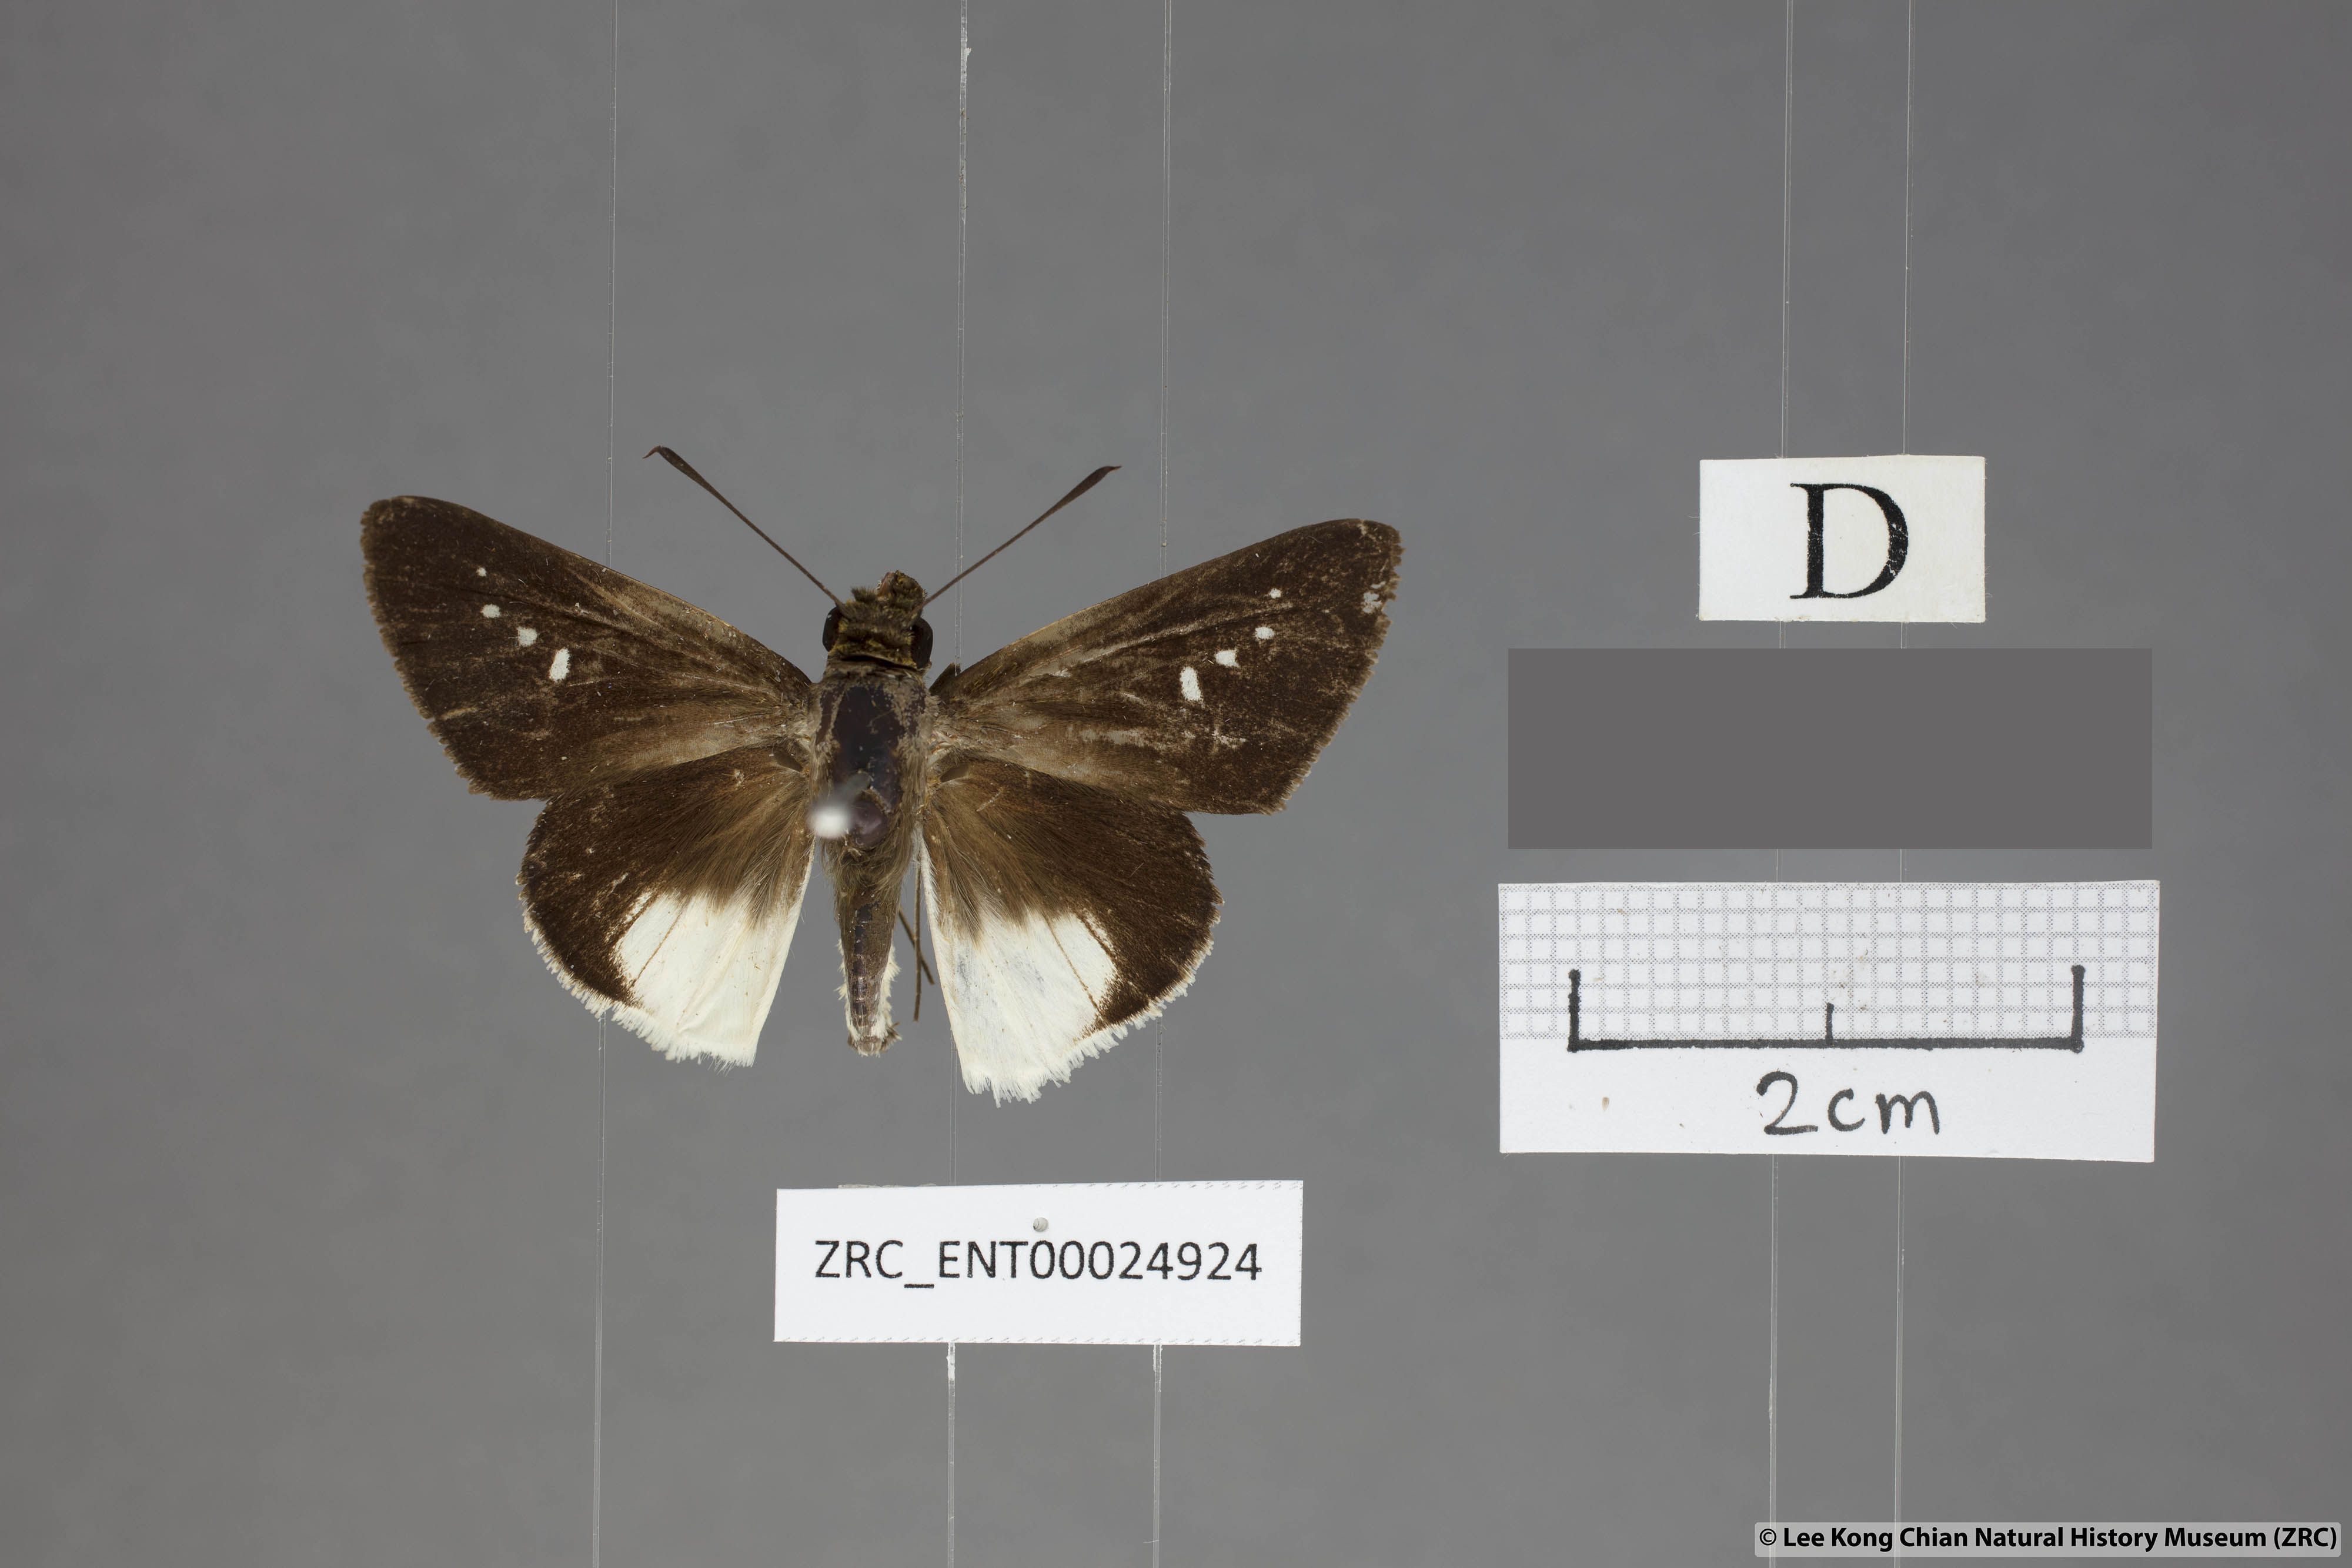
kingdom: Animalia
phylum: Arthropoda
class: Insecta
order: Lepidoptera
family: Hesperiidae
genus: Iton
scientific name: Iton semamora
